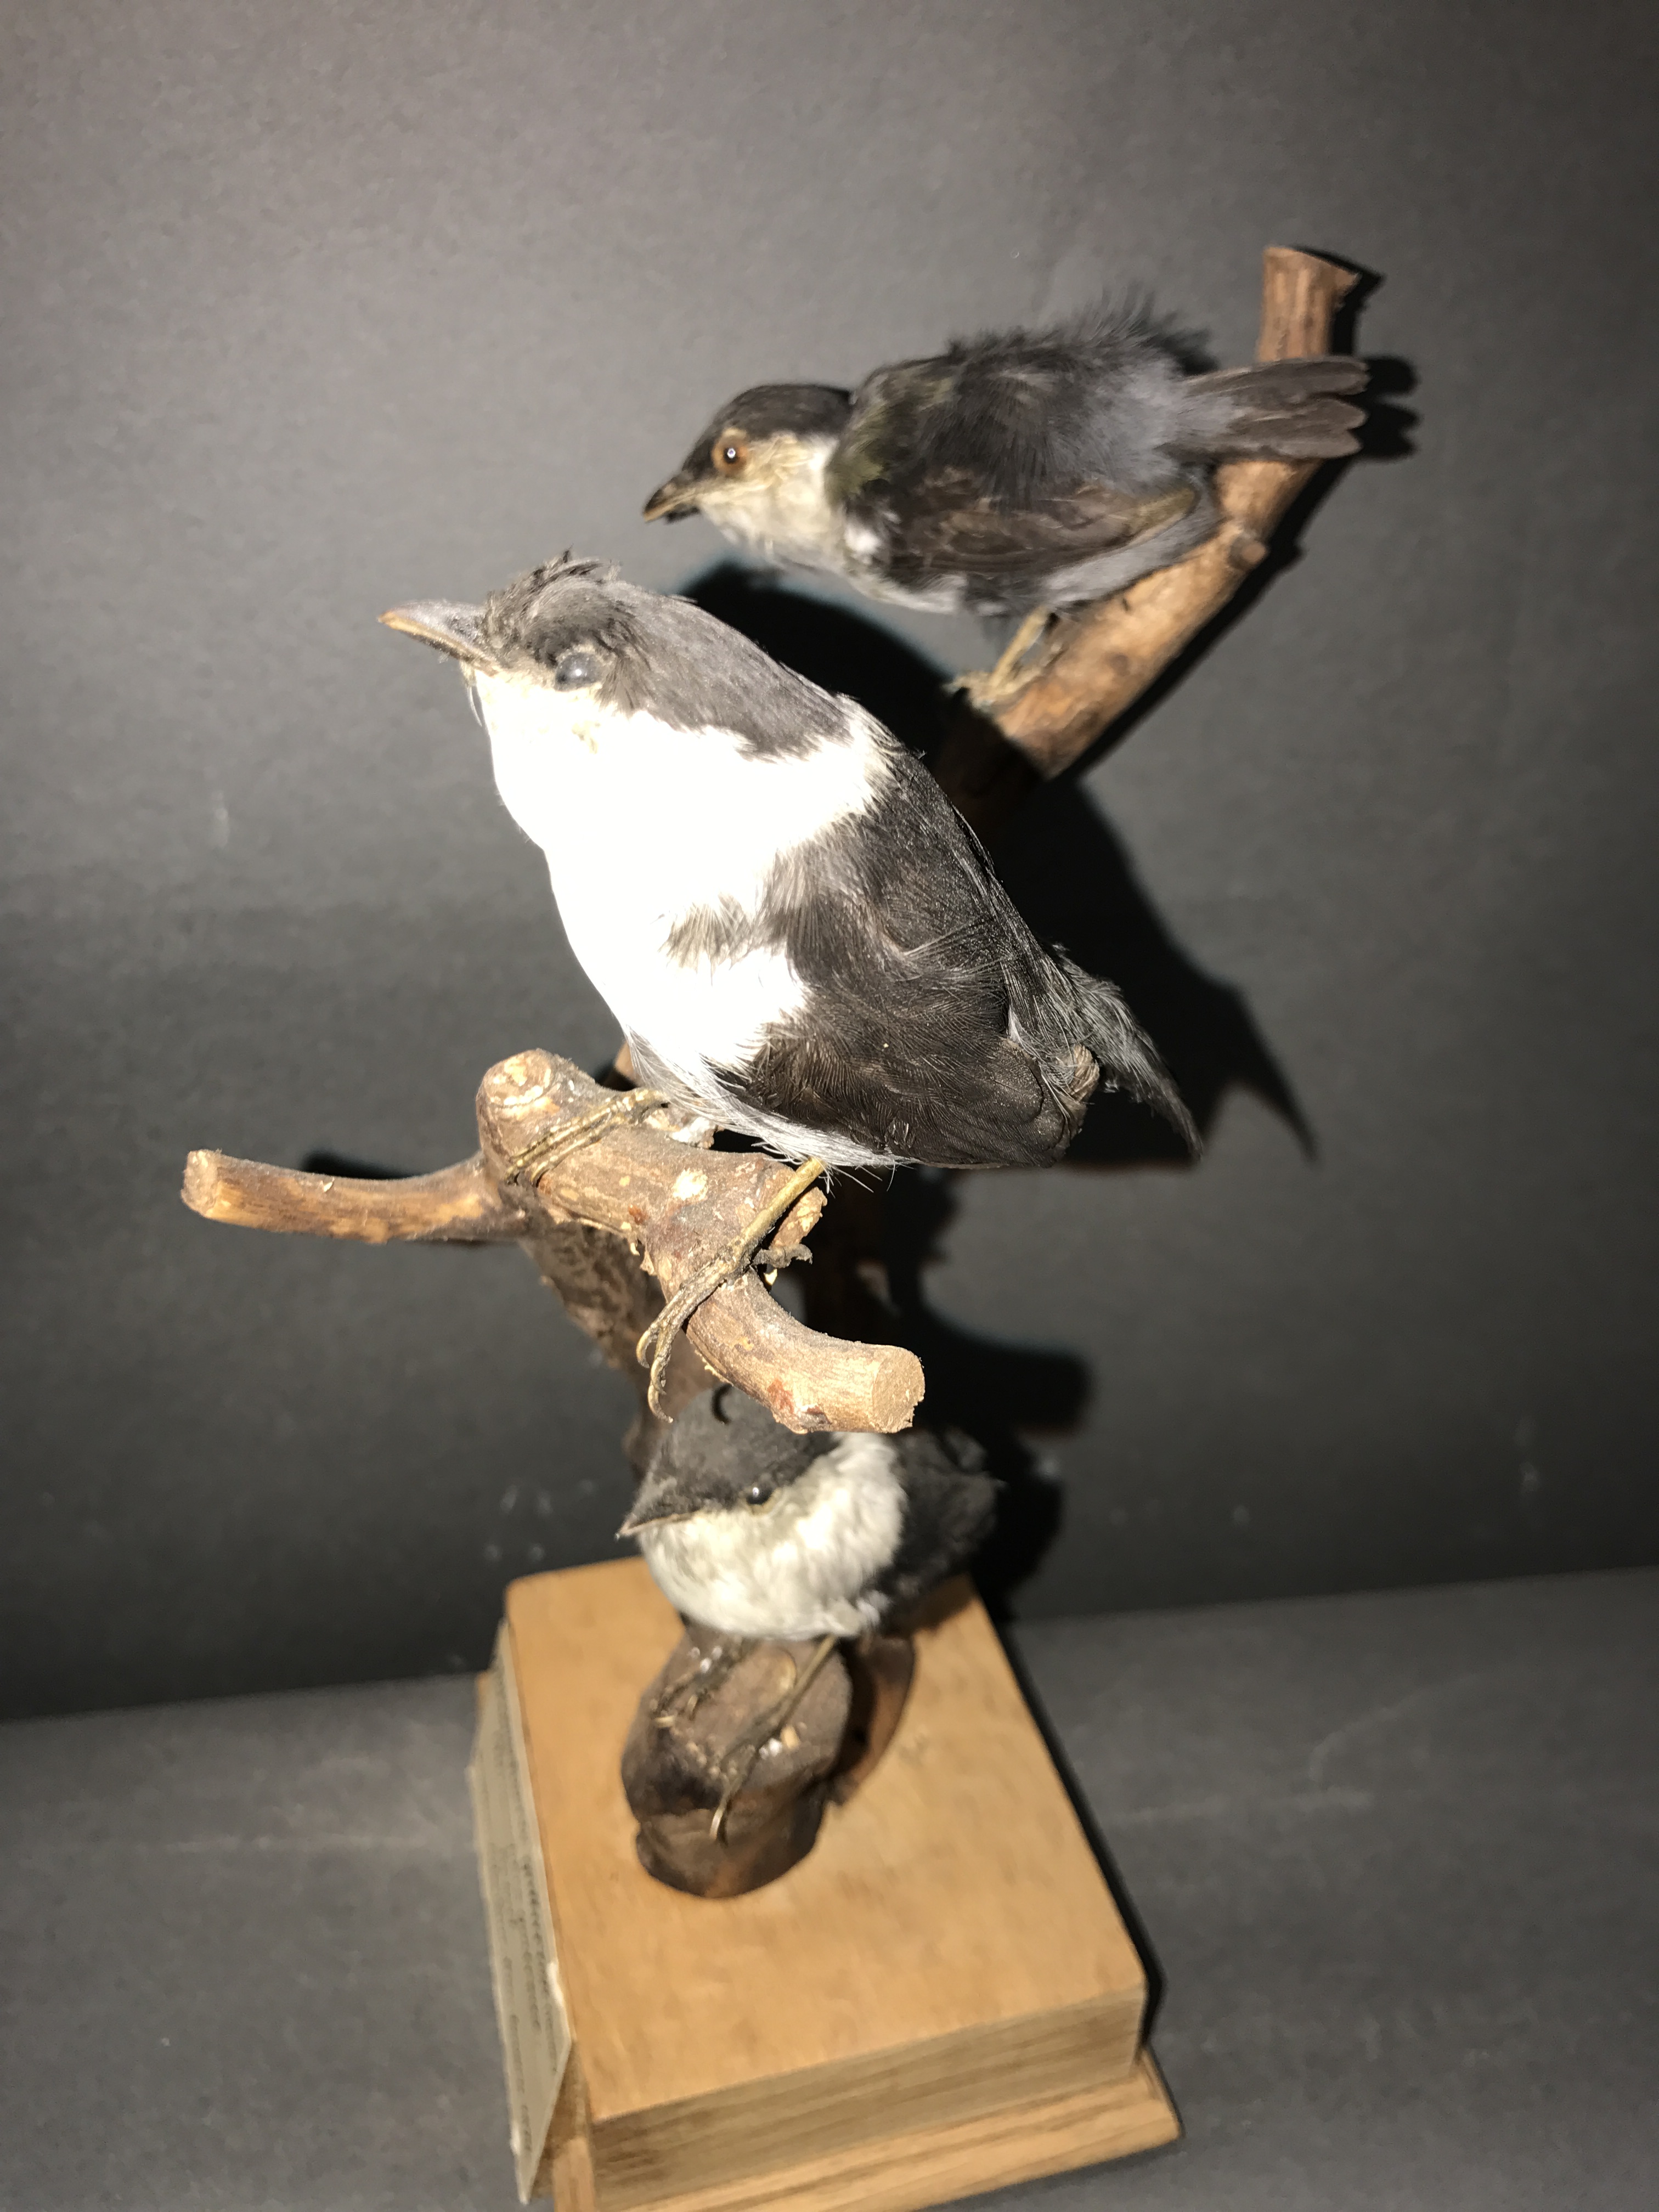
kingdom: Animalia
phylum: Chordata
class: Aves
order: Passeriformes
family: Pipridae
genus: Manacus
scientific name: Manacus manacus
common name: White-bearded manakin
